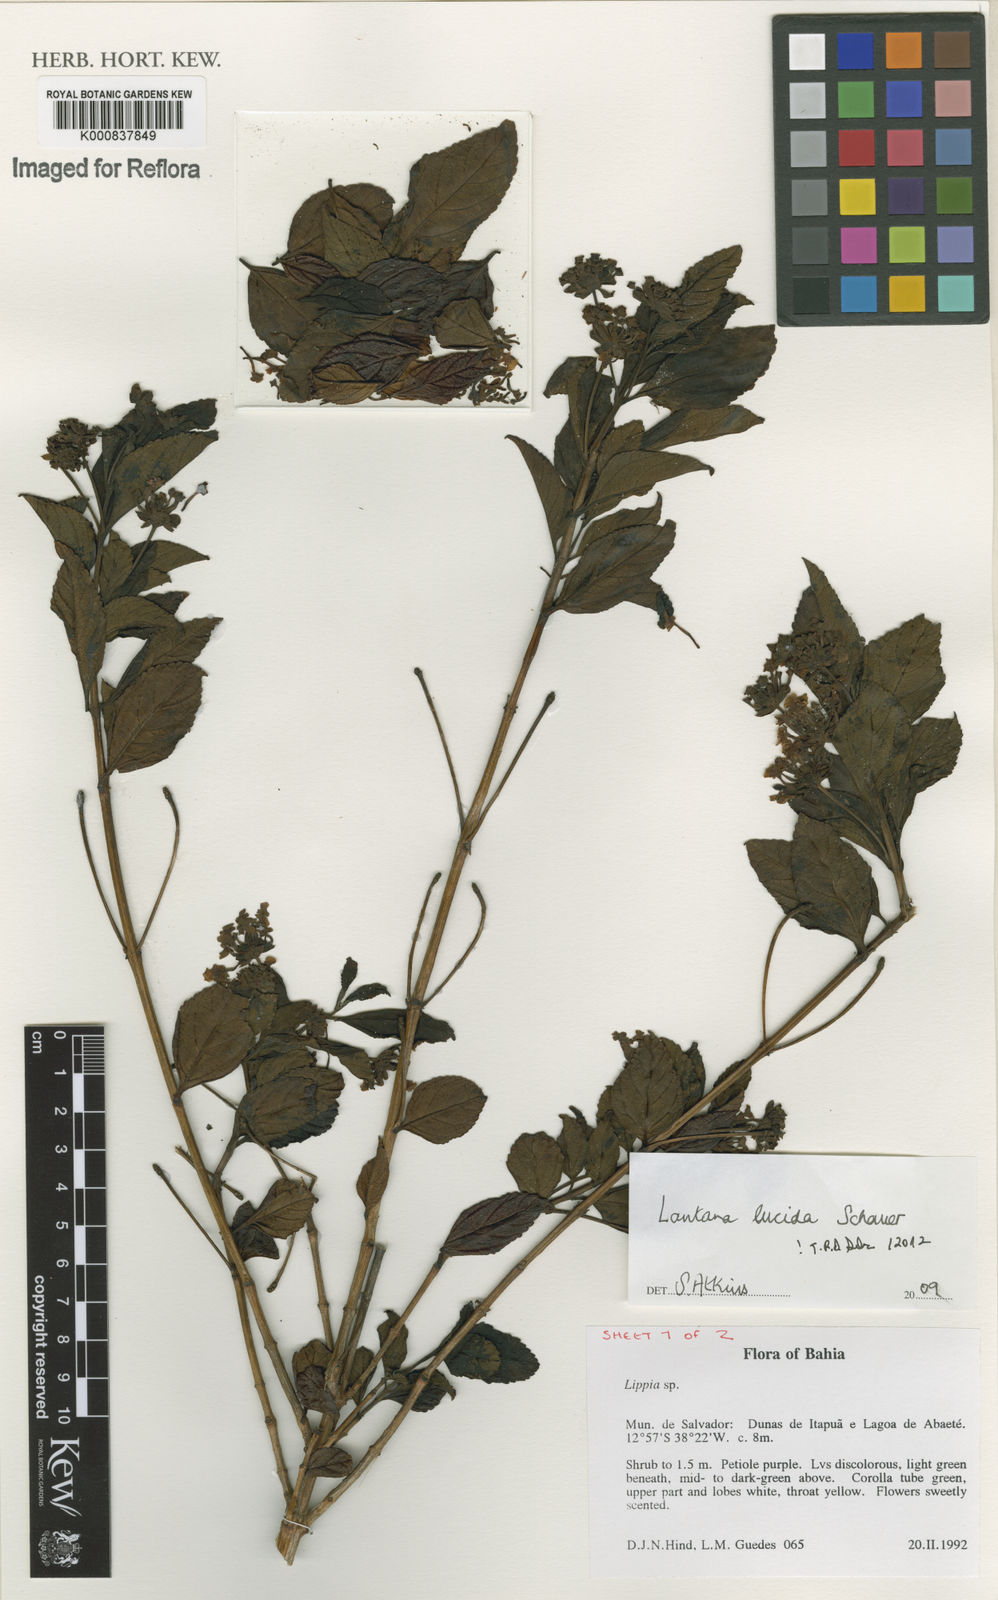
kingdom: Plantae
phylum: Tracheophyta
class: Magnoliopsida
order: Lamiales
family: Verbenaceae
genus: Lantana
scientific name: Lantana lucida
